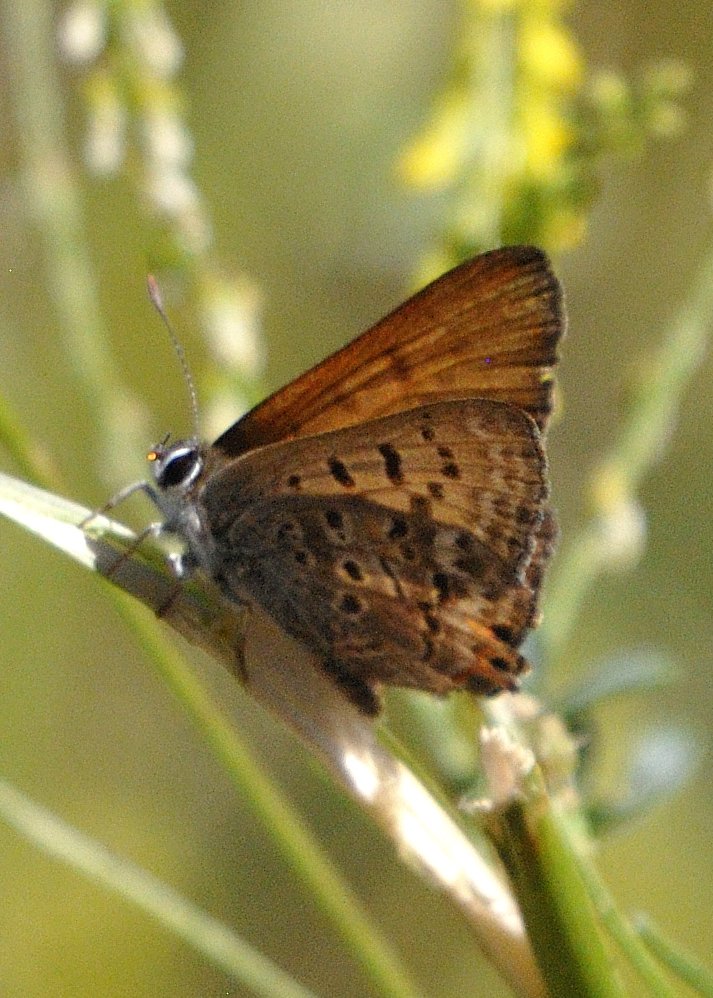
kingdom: Animalia
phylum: Arthropoda
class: Insecta
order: Lepidoptera
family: Sesiidae
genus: Sesia
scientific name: Sesia Lycaena arota
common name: Tailed Copper
